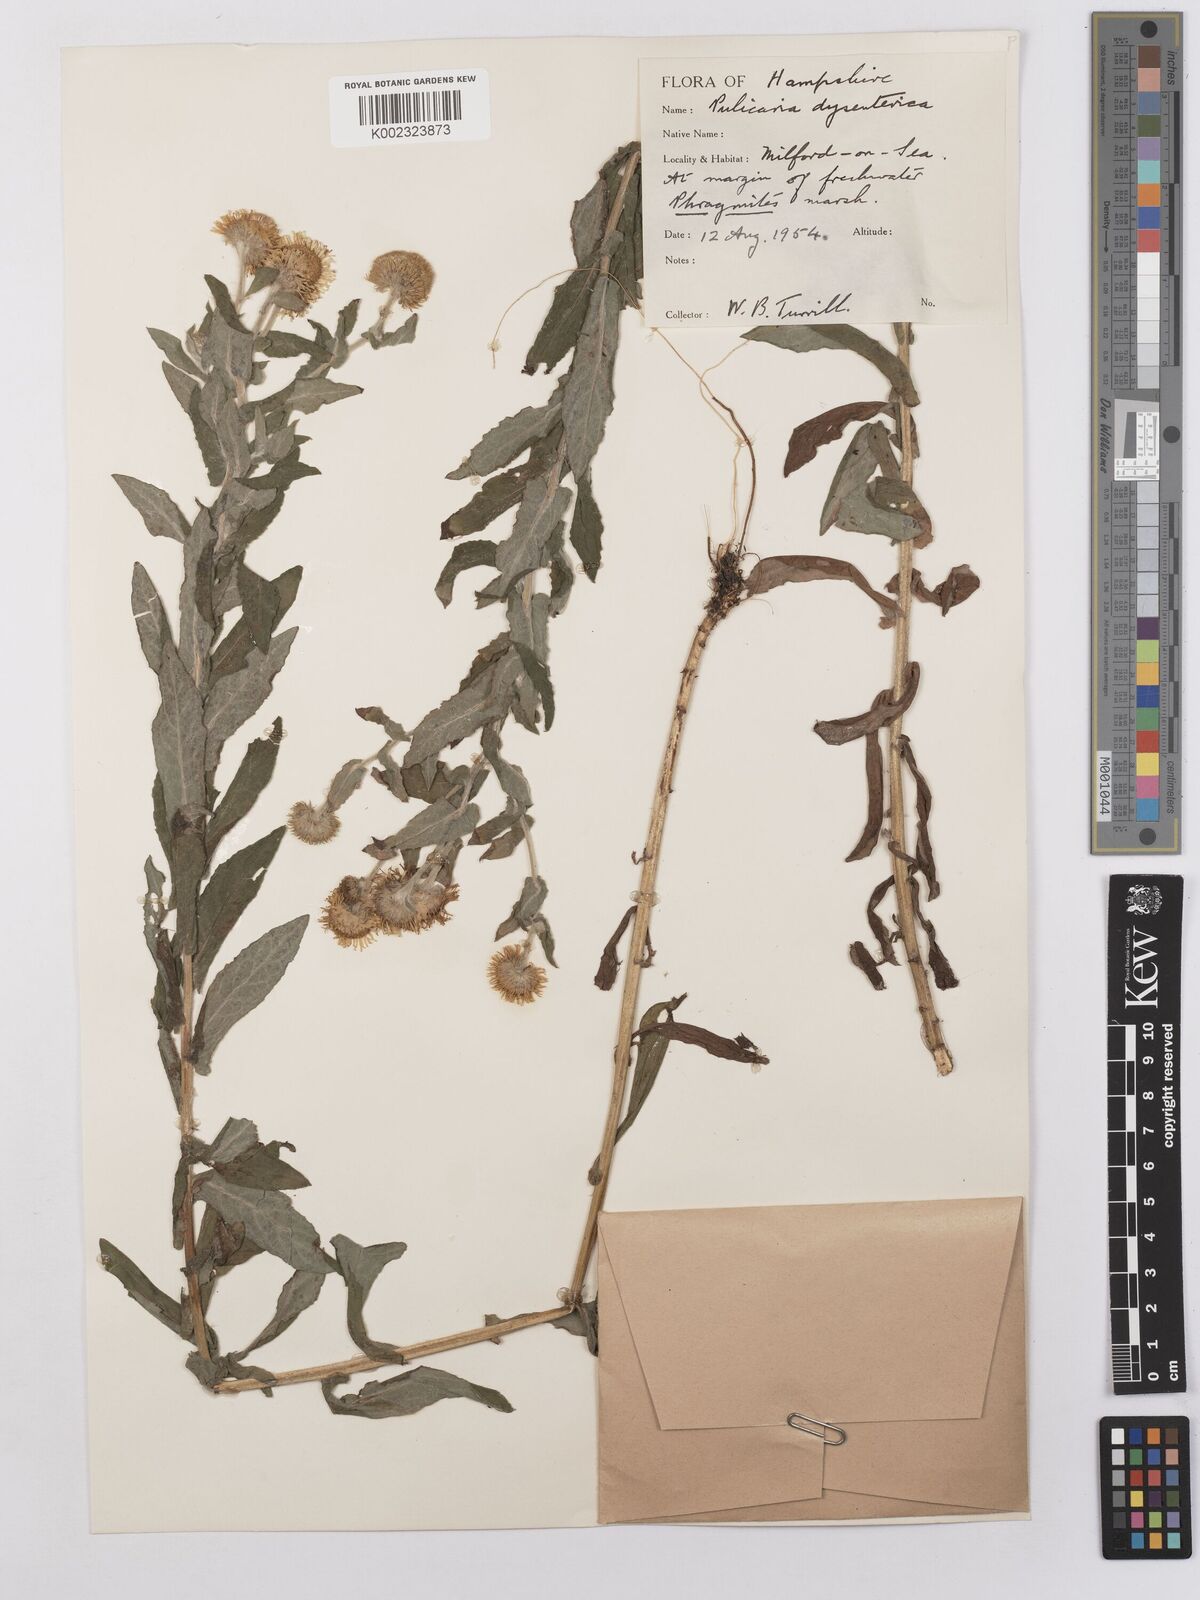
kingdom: Plantae
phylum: Tracheophyta
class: Magnoliopsida
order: Asterales
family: Asteraceae
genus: Pulicaria
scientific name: Pulicaria dysenterica
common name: Common fleabane
